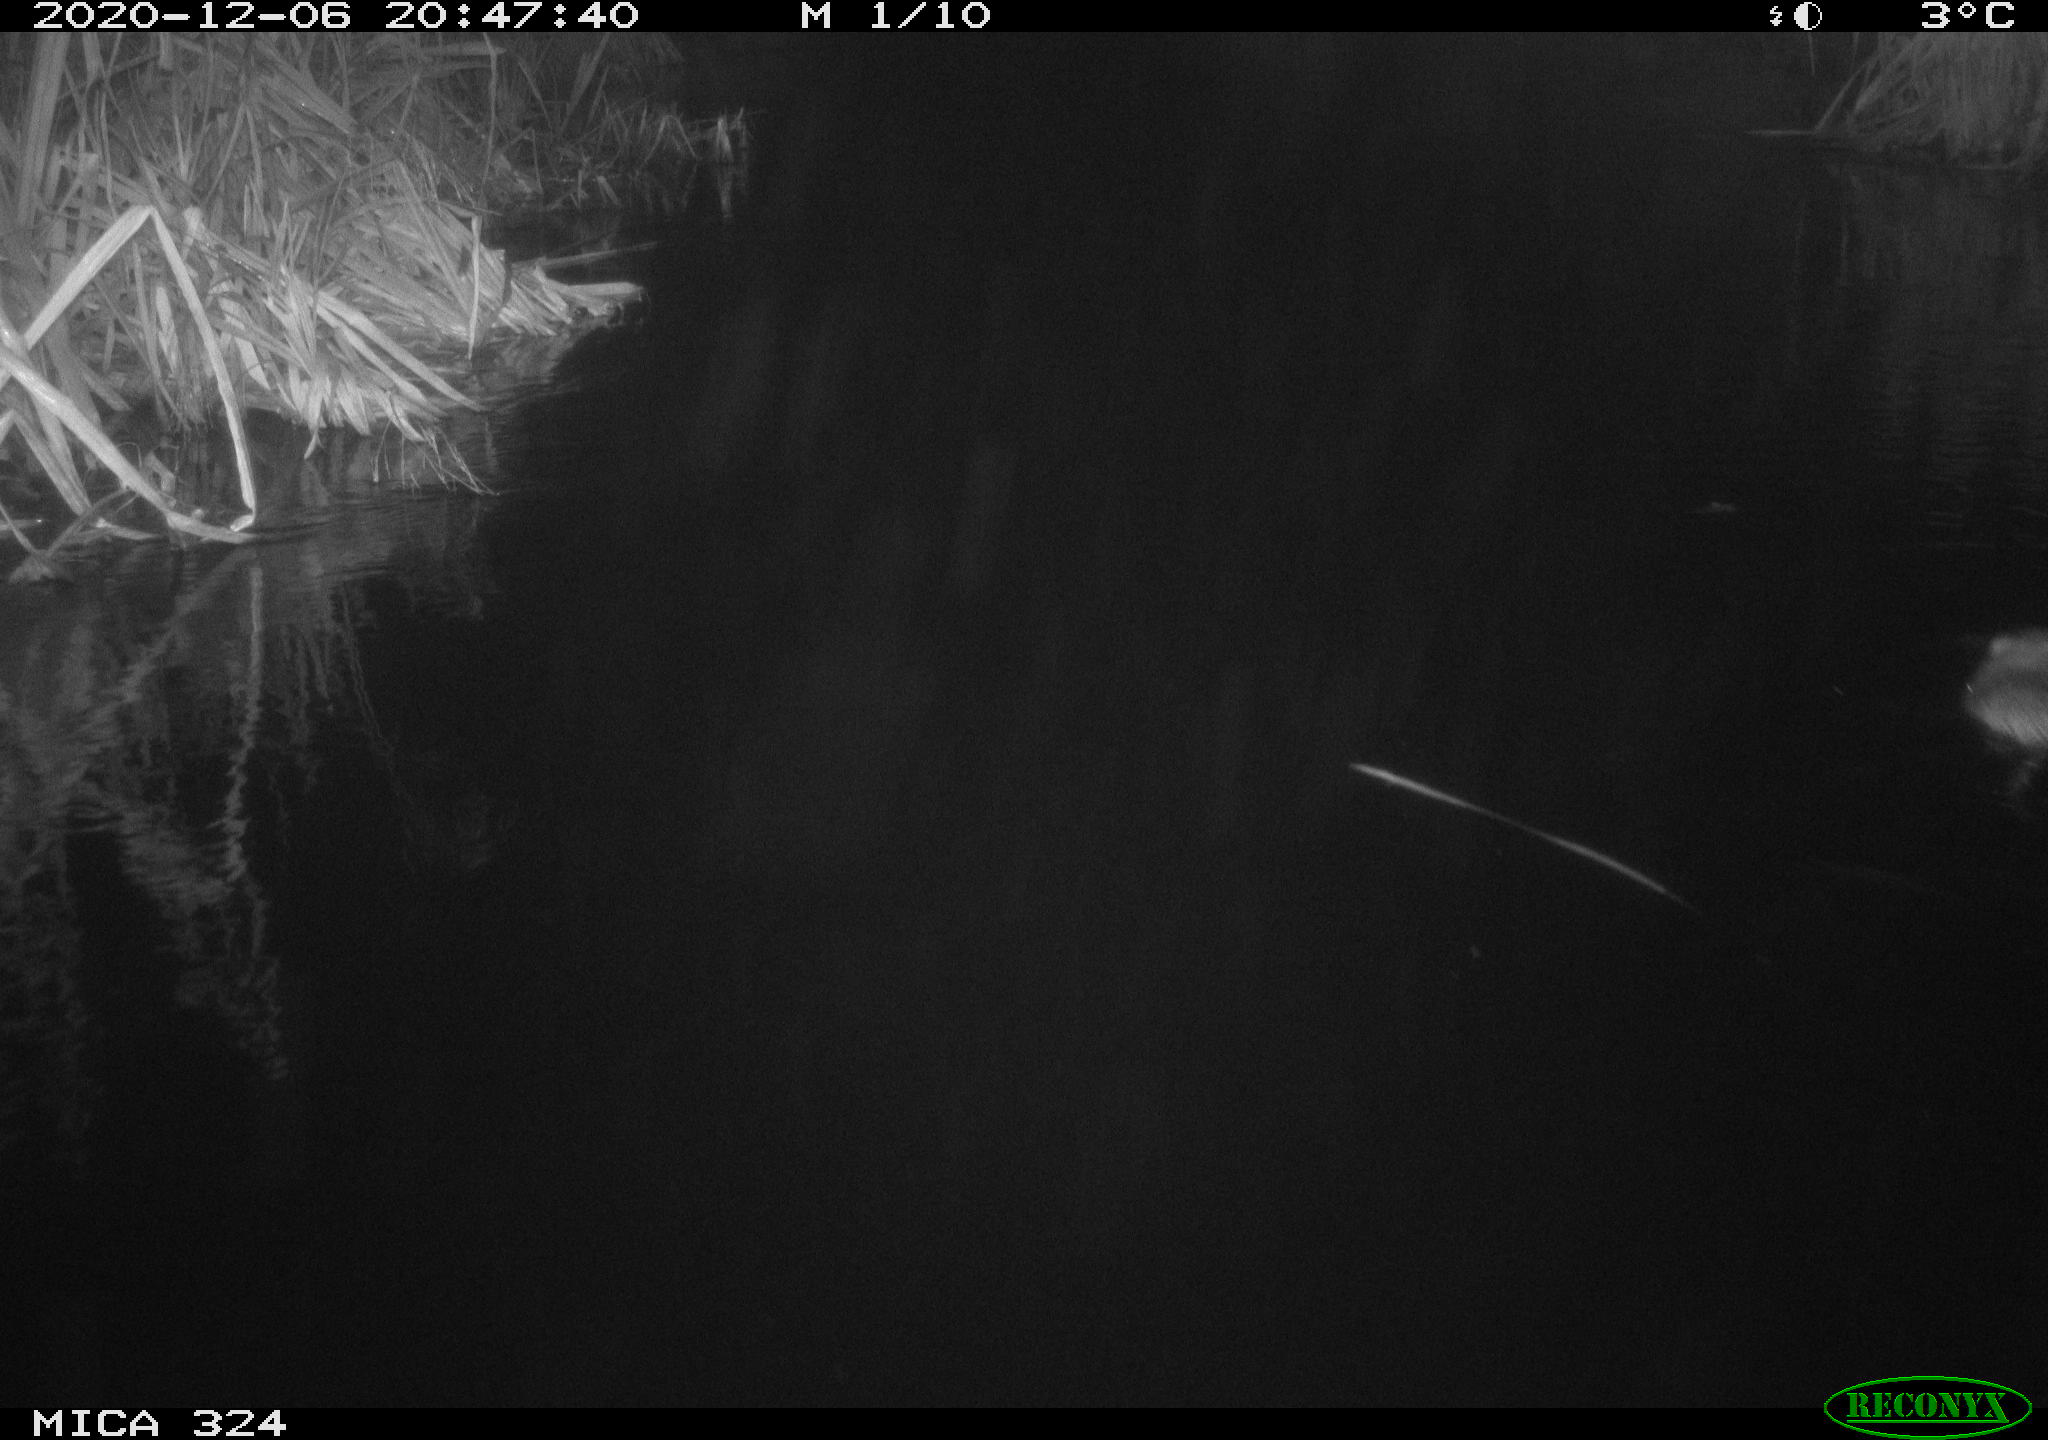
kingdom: Animalia
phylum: Chordata
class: Mammalia
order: Rodentia
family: Cricetidae
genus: Ondatra
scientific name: Ondatra zibethicus
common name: Muskrat
